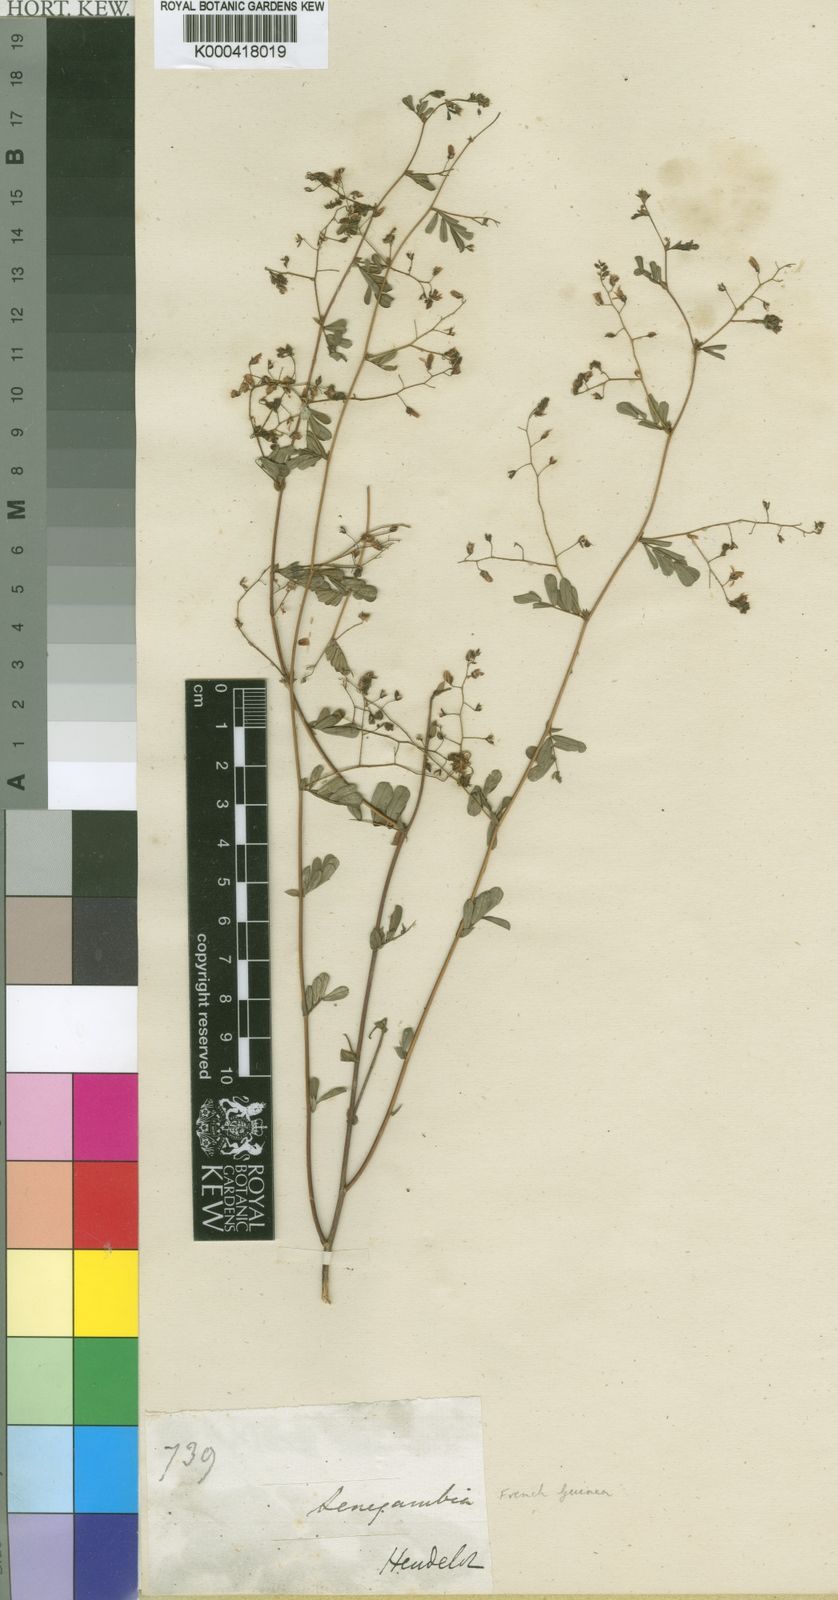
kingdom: Plantae
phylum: Tracheophyta
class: Magnoliopsida
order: Fabales
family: Fabaceae
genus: Aeschynomene
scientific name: Aeschynomene pulchella
